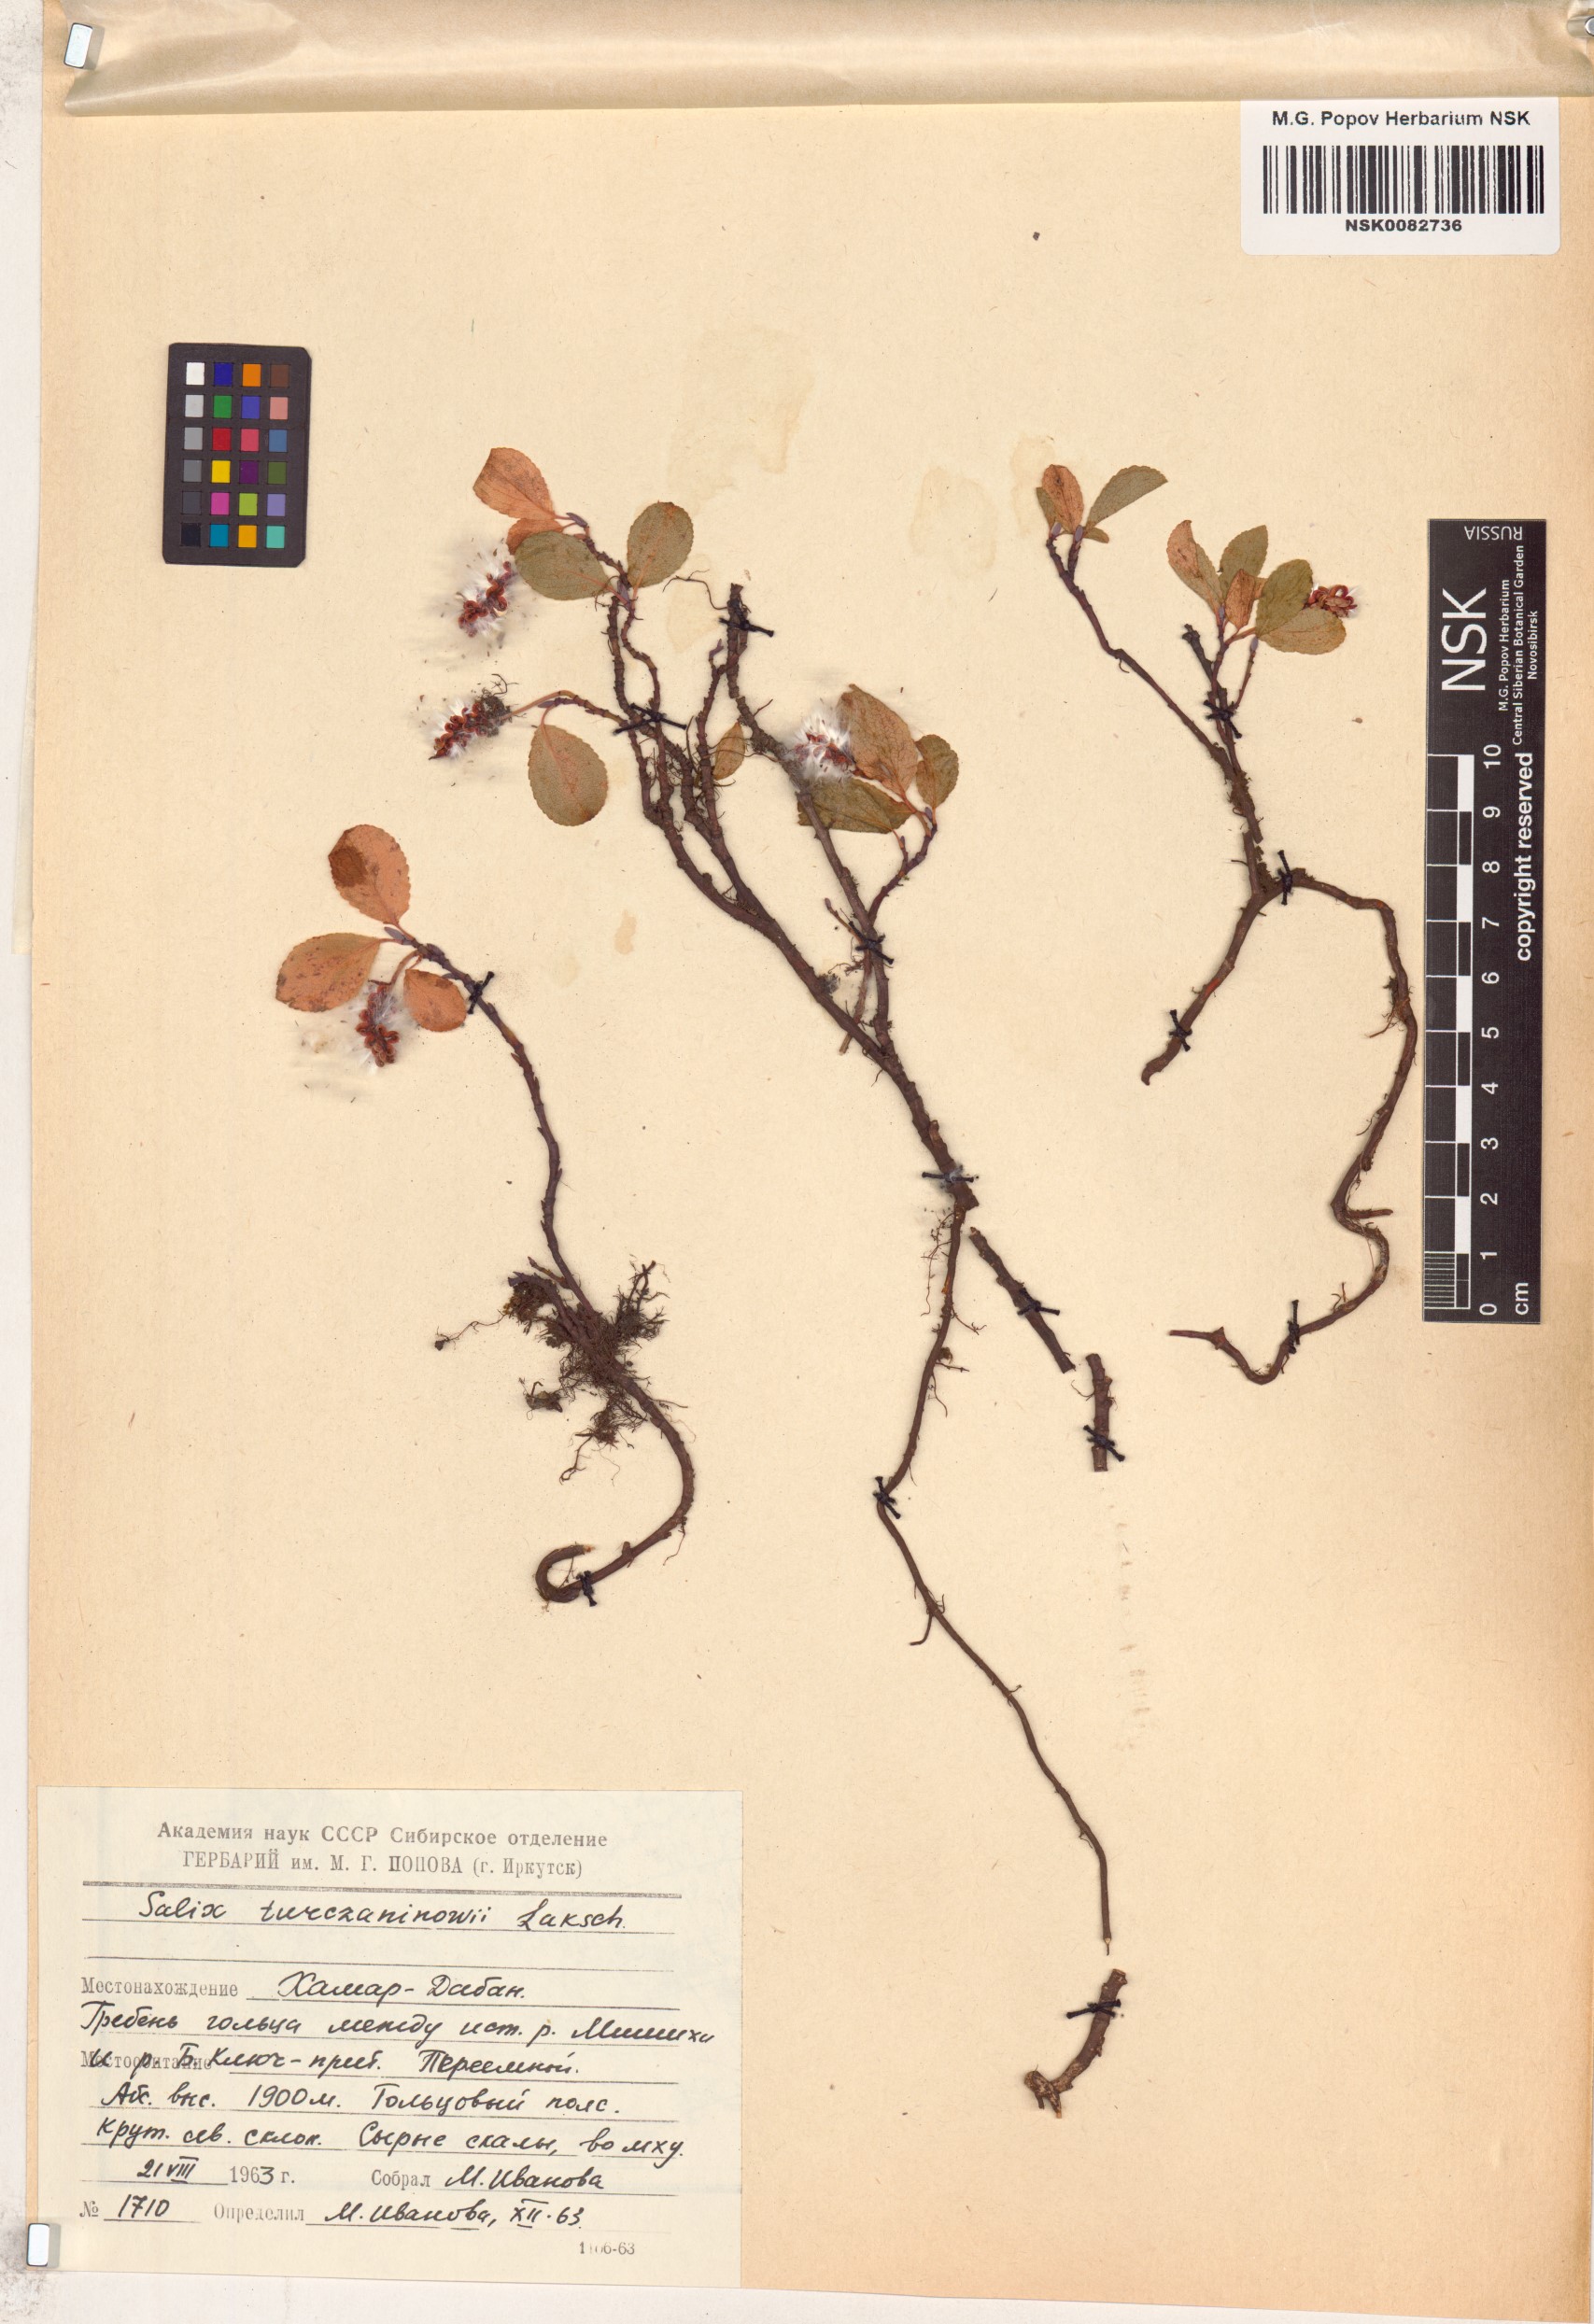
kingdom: Plantae
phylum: Tracheophyta
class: Magnoliopsida
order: Malpighiales
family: Salicaceae
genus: Salix
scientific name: Salix turczaninowii
